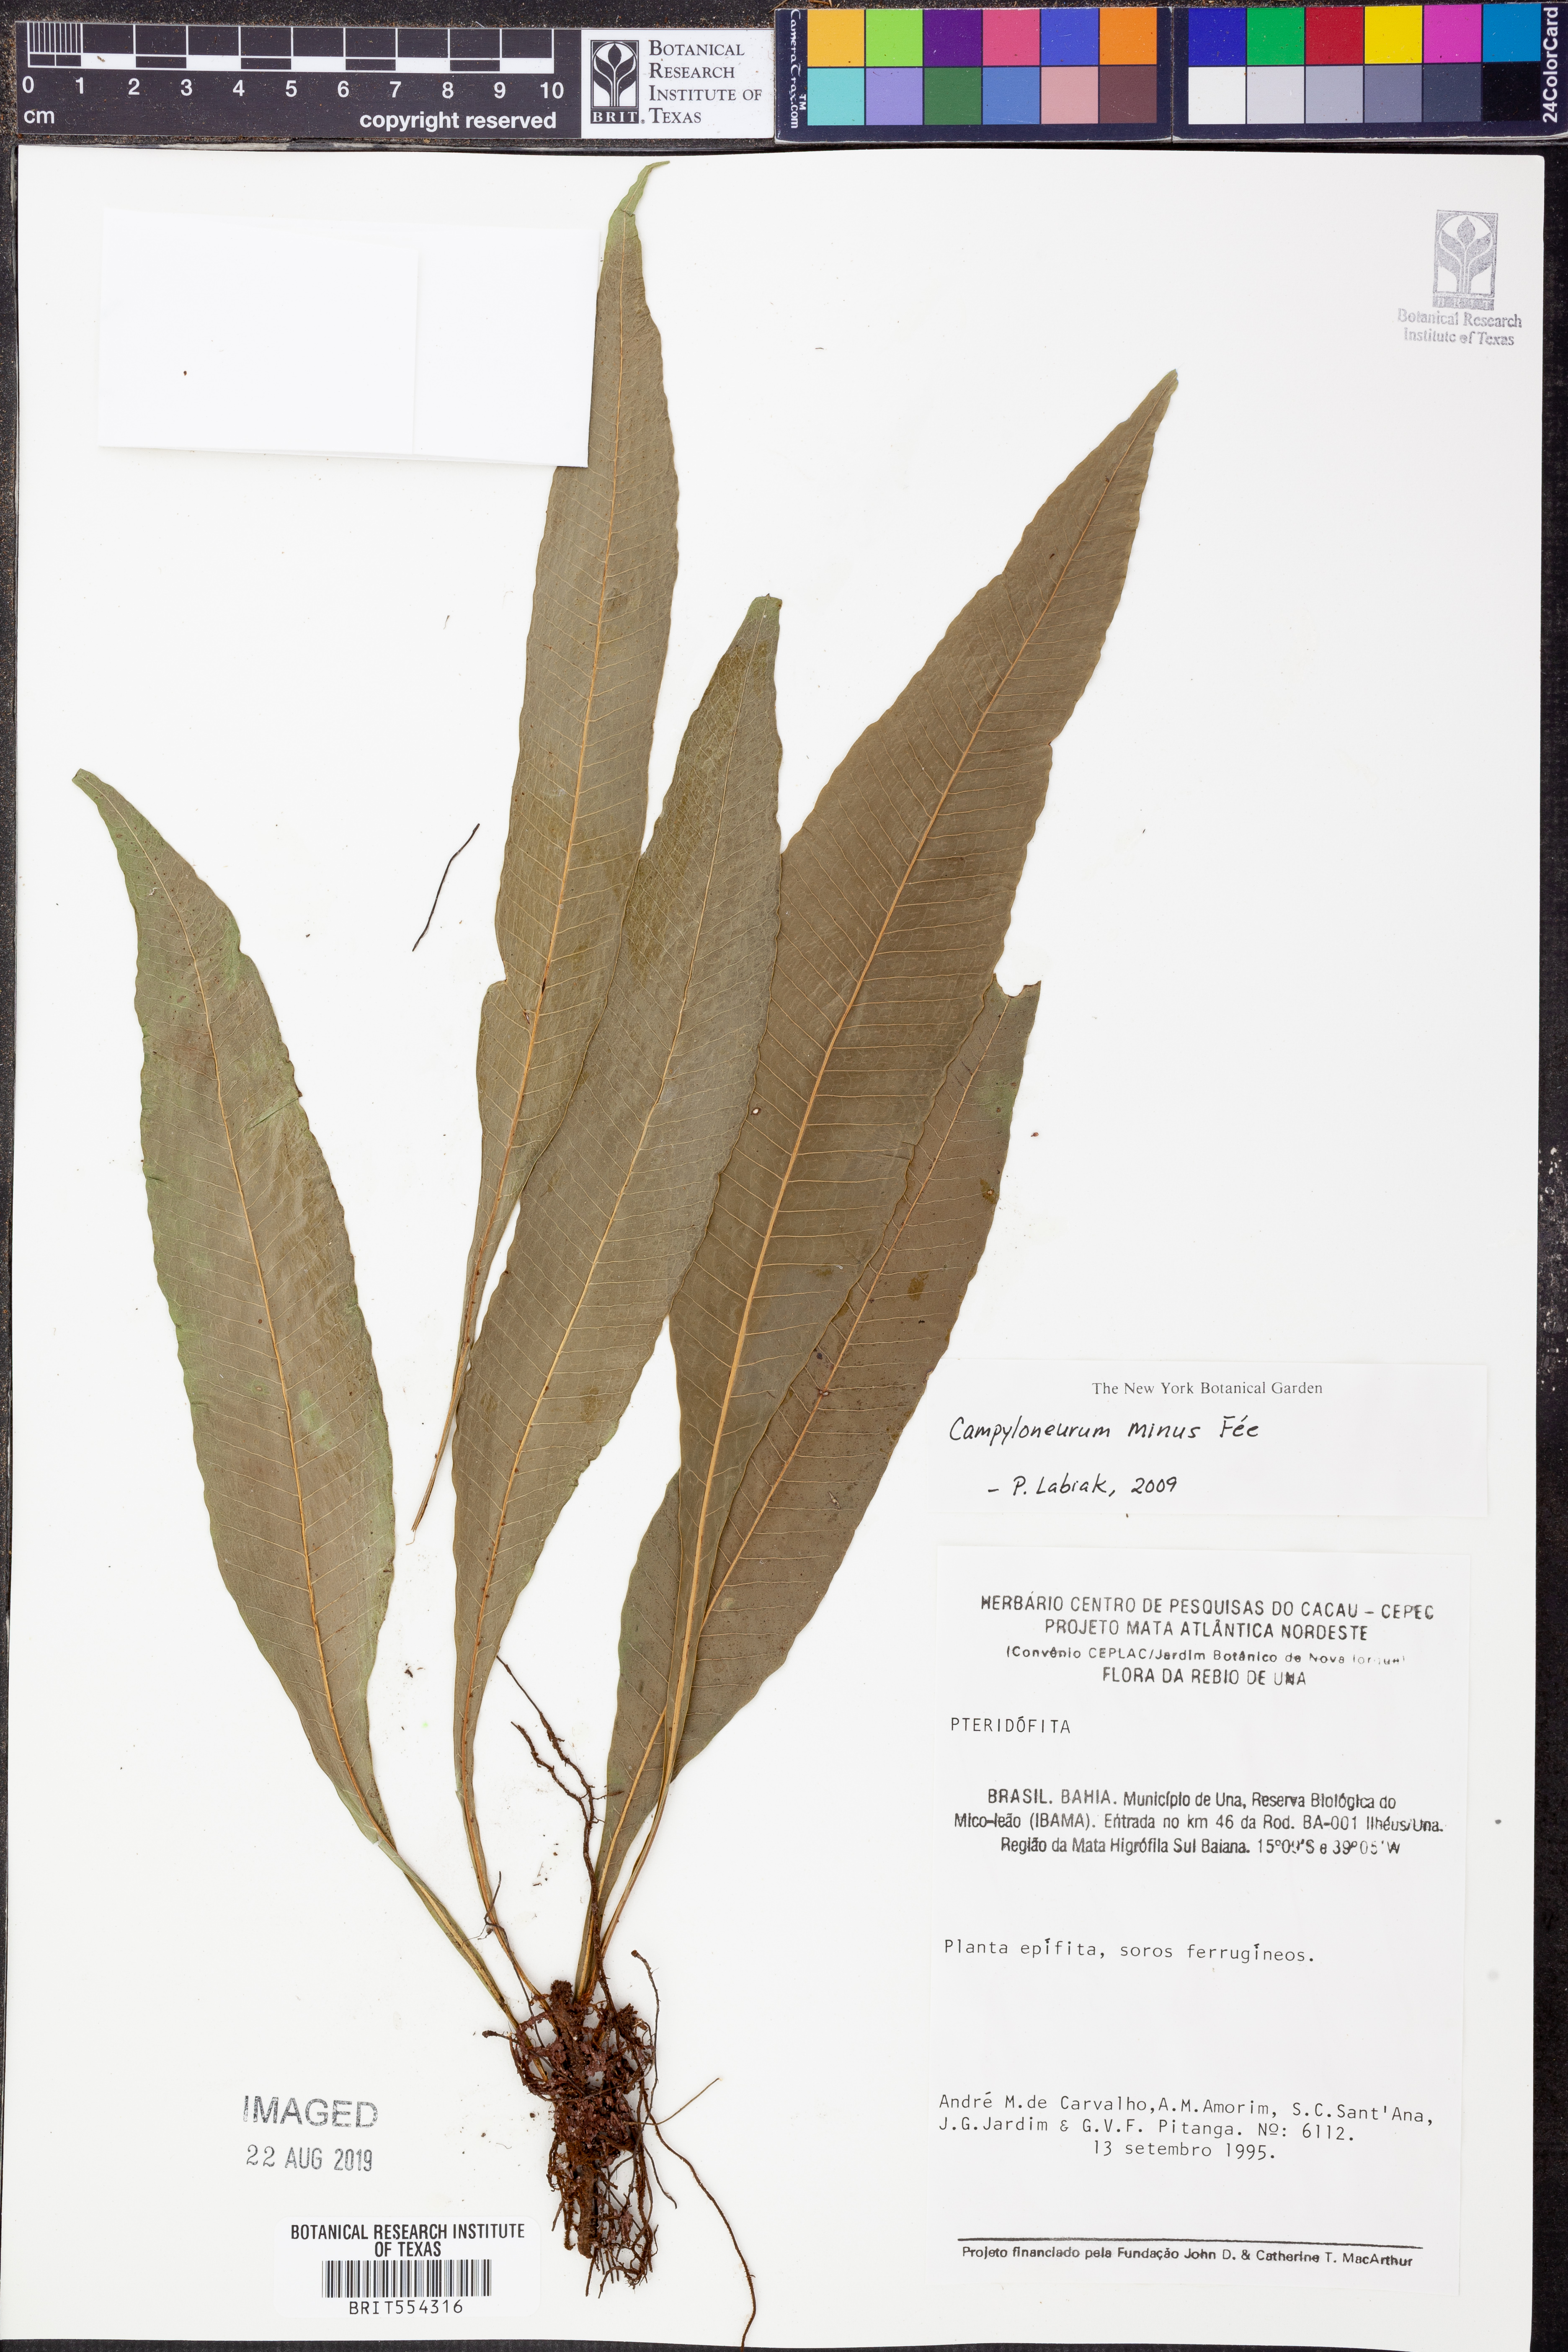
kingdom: Plantae
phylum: Tracheophyta
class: Polypodiopsida
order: Polypodiales
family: Polypodiaceae
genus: Campyloneurum
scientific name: Campyloneurum aphanophlebium
